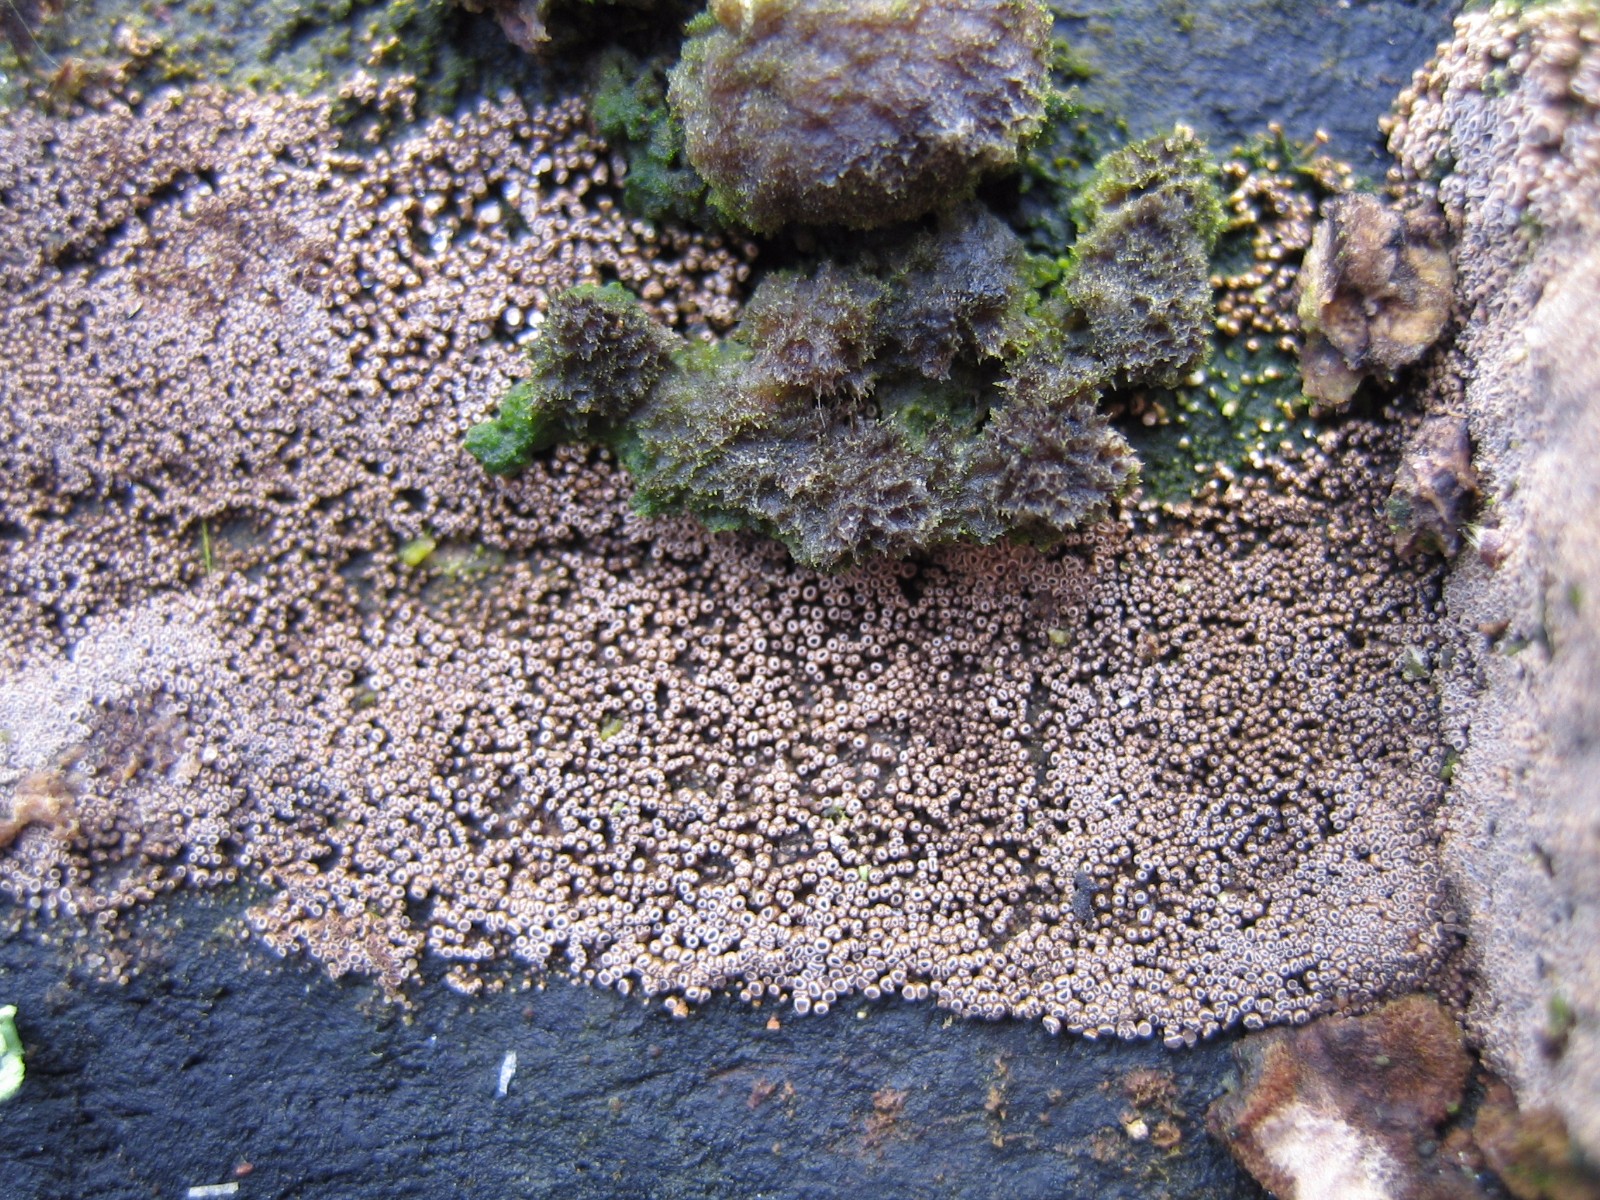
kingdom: Fungi
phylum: Basidiomycota
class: Agaricomycetes
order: Agaricales
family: Niaceae
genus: Merismodes
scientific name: Merismodes anomala
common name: almindelig læderskål
